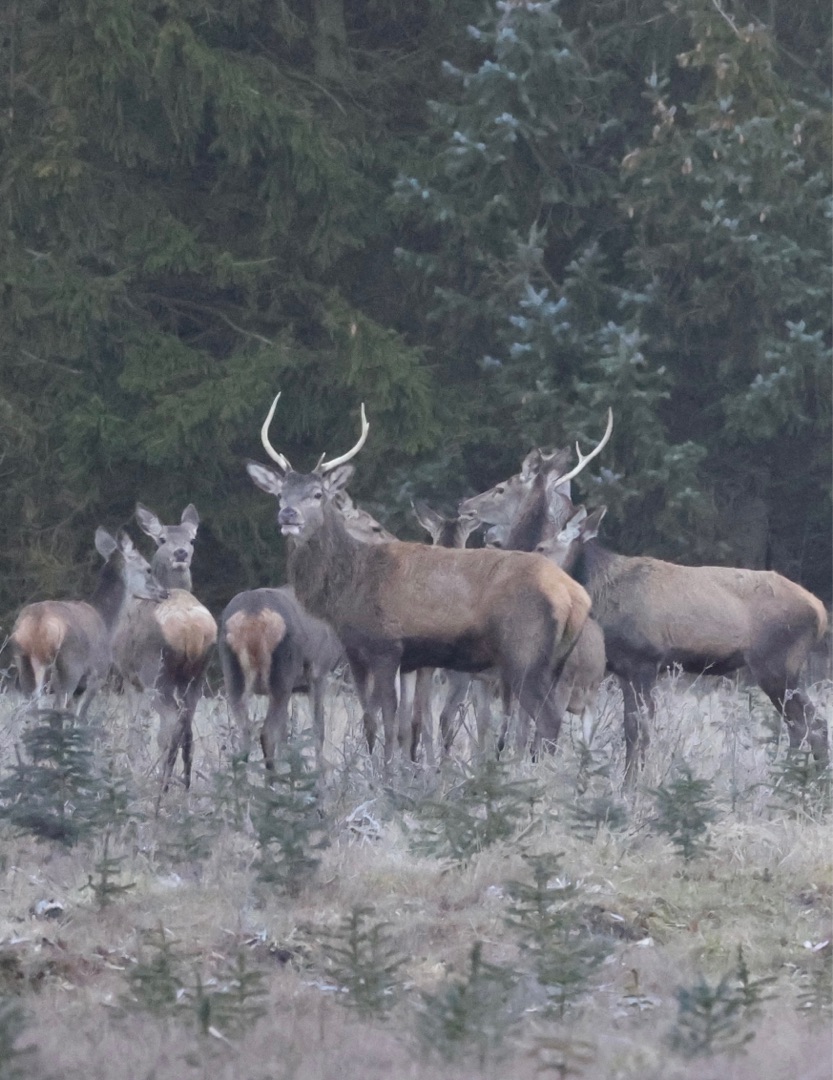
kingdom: Animalia
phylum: Chordata
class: Mammalia
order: Artiodactyla
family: Cervidae
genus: Cervus
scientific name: Cervus elaphus
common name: Krondyr
